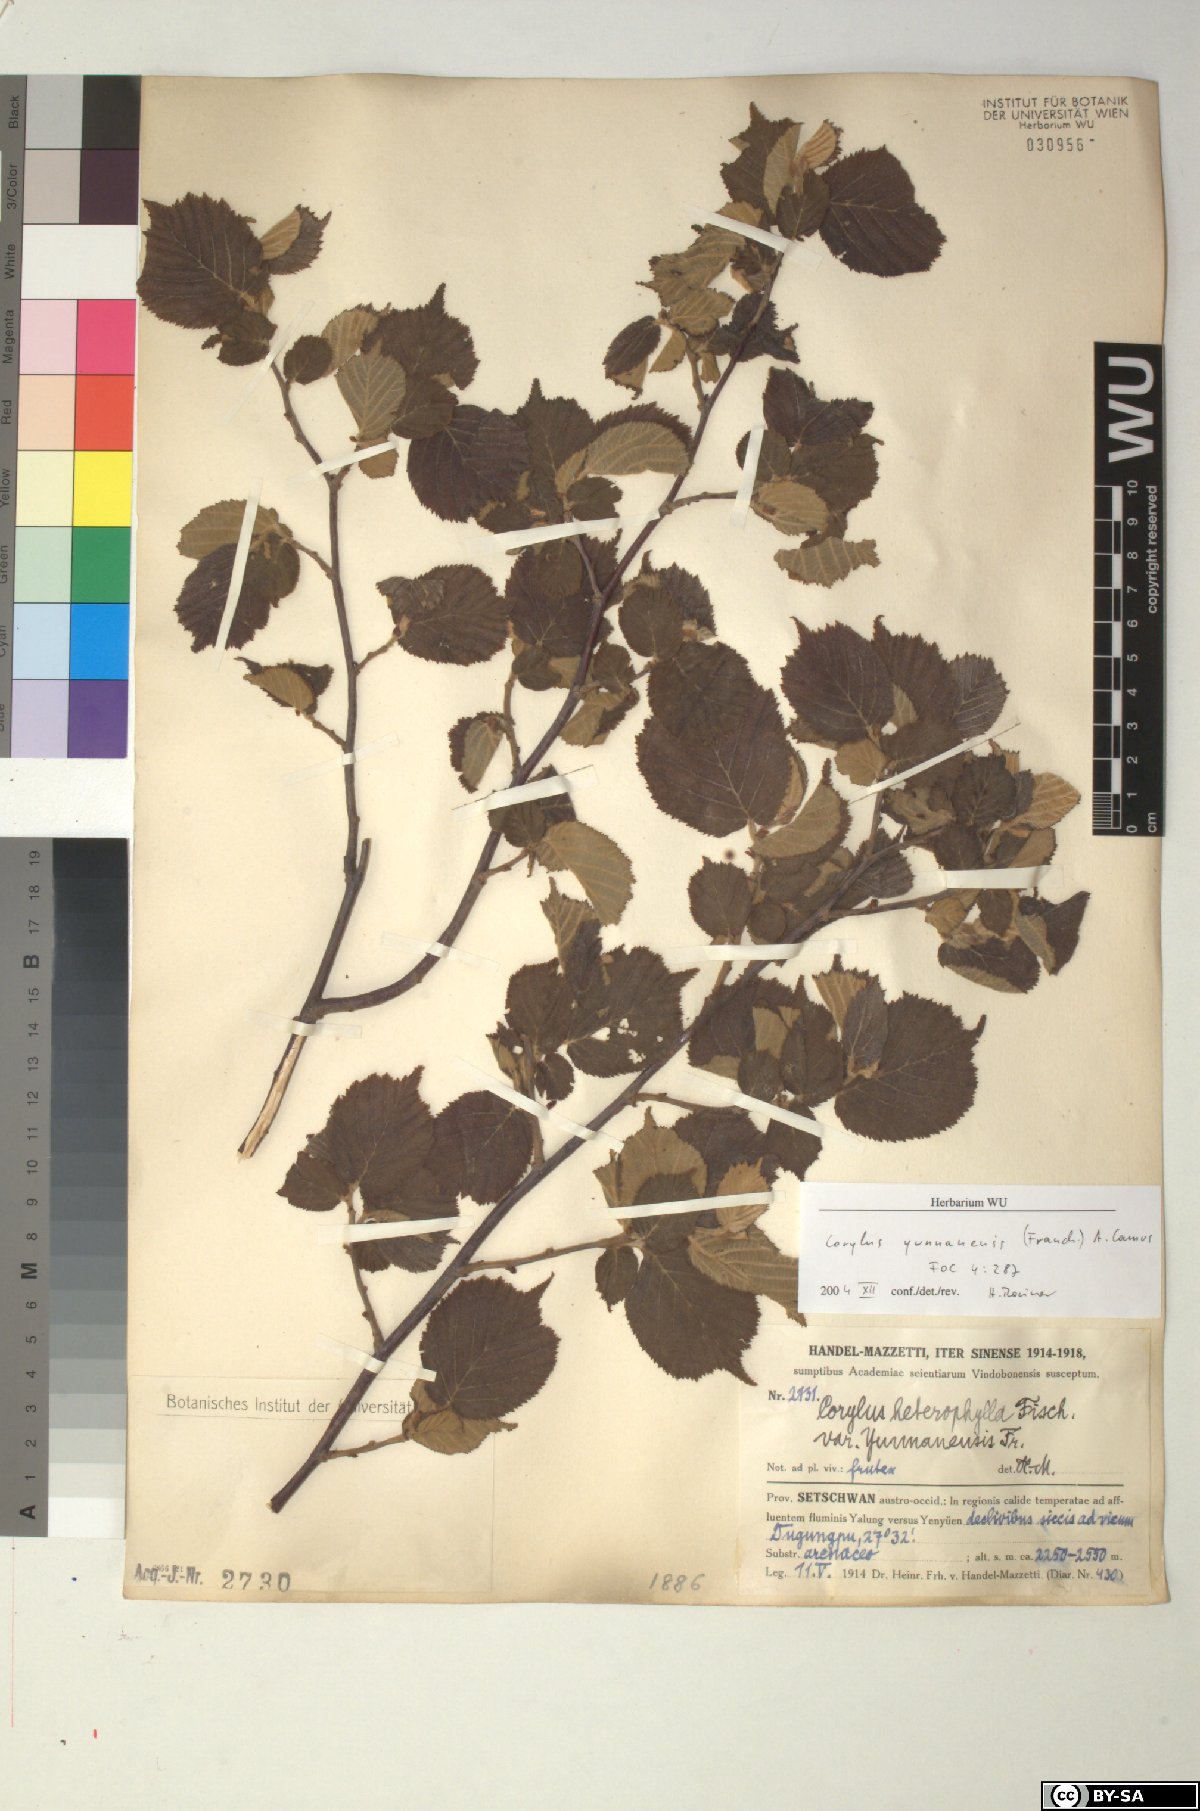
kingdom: Plantae
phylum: Tracheophyta
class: Magnoliopsida
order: Fagales
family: Betulaceae
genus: Corylus
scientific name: Corylus yunnanensis
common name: Yunnan hazel
